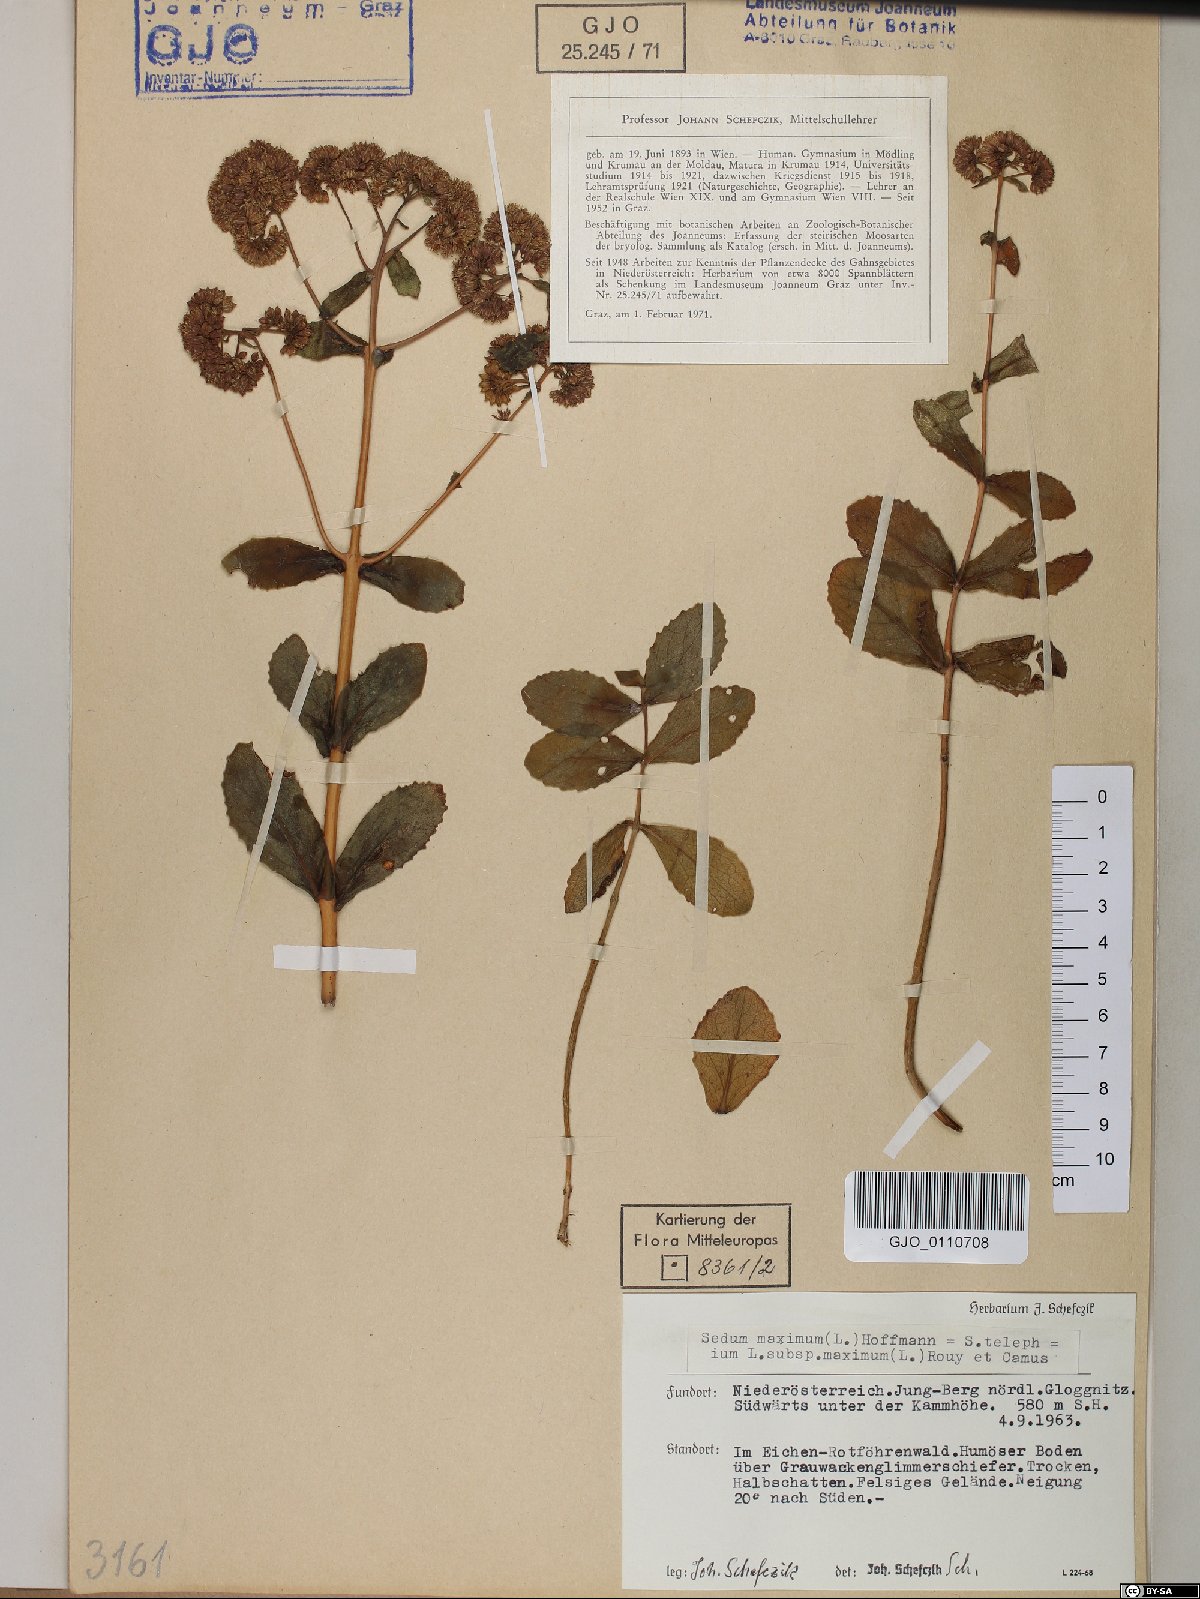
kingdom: Plantae
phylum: Tracheophyta
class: Magnoliopsida
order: Saxifragales
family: Crassulaceae
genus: Hylotelephium
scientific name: Hylotelephium maximum
